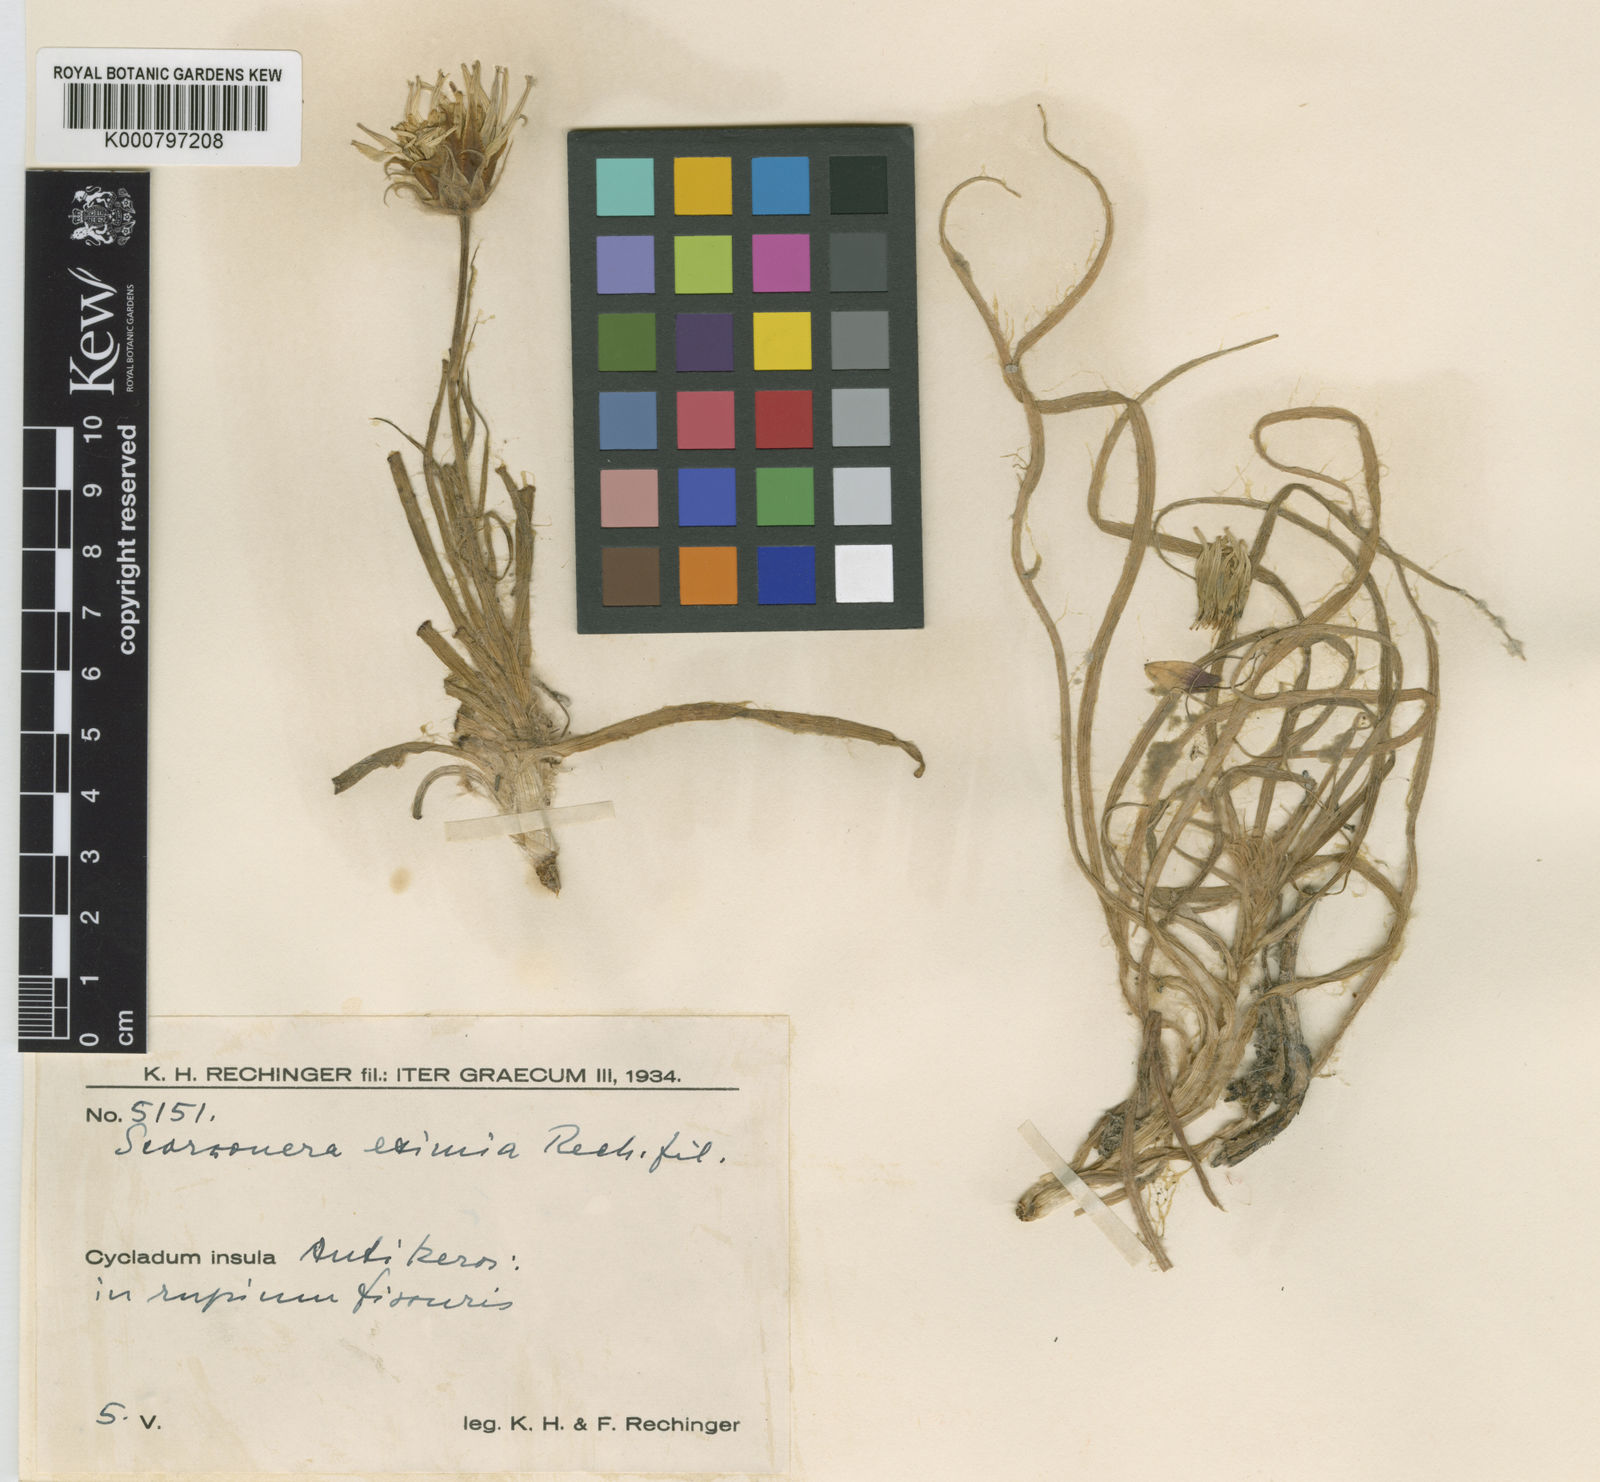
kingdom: Plantae
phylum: Tracheophyta
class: Magnoliopsida
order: Asterales
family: Asteraceae
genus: Gelasia
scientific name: Gelasia araneosa
